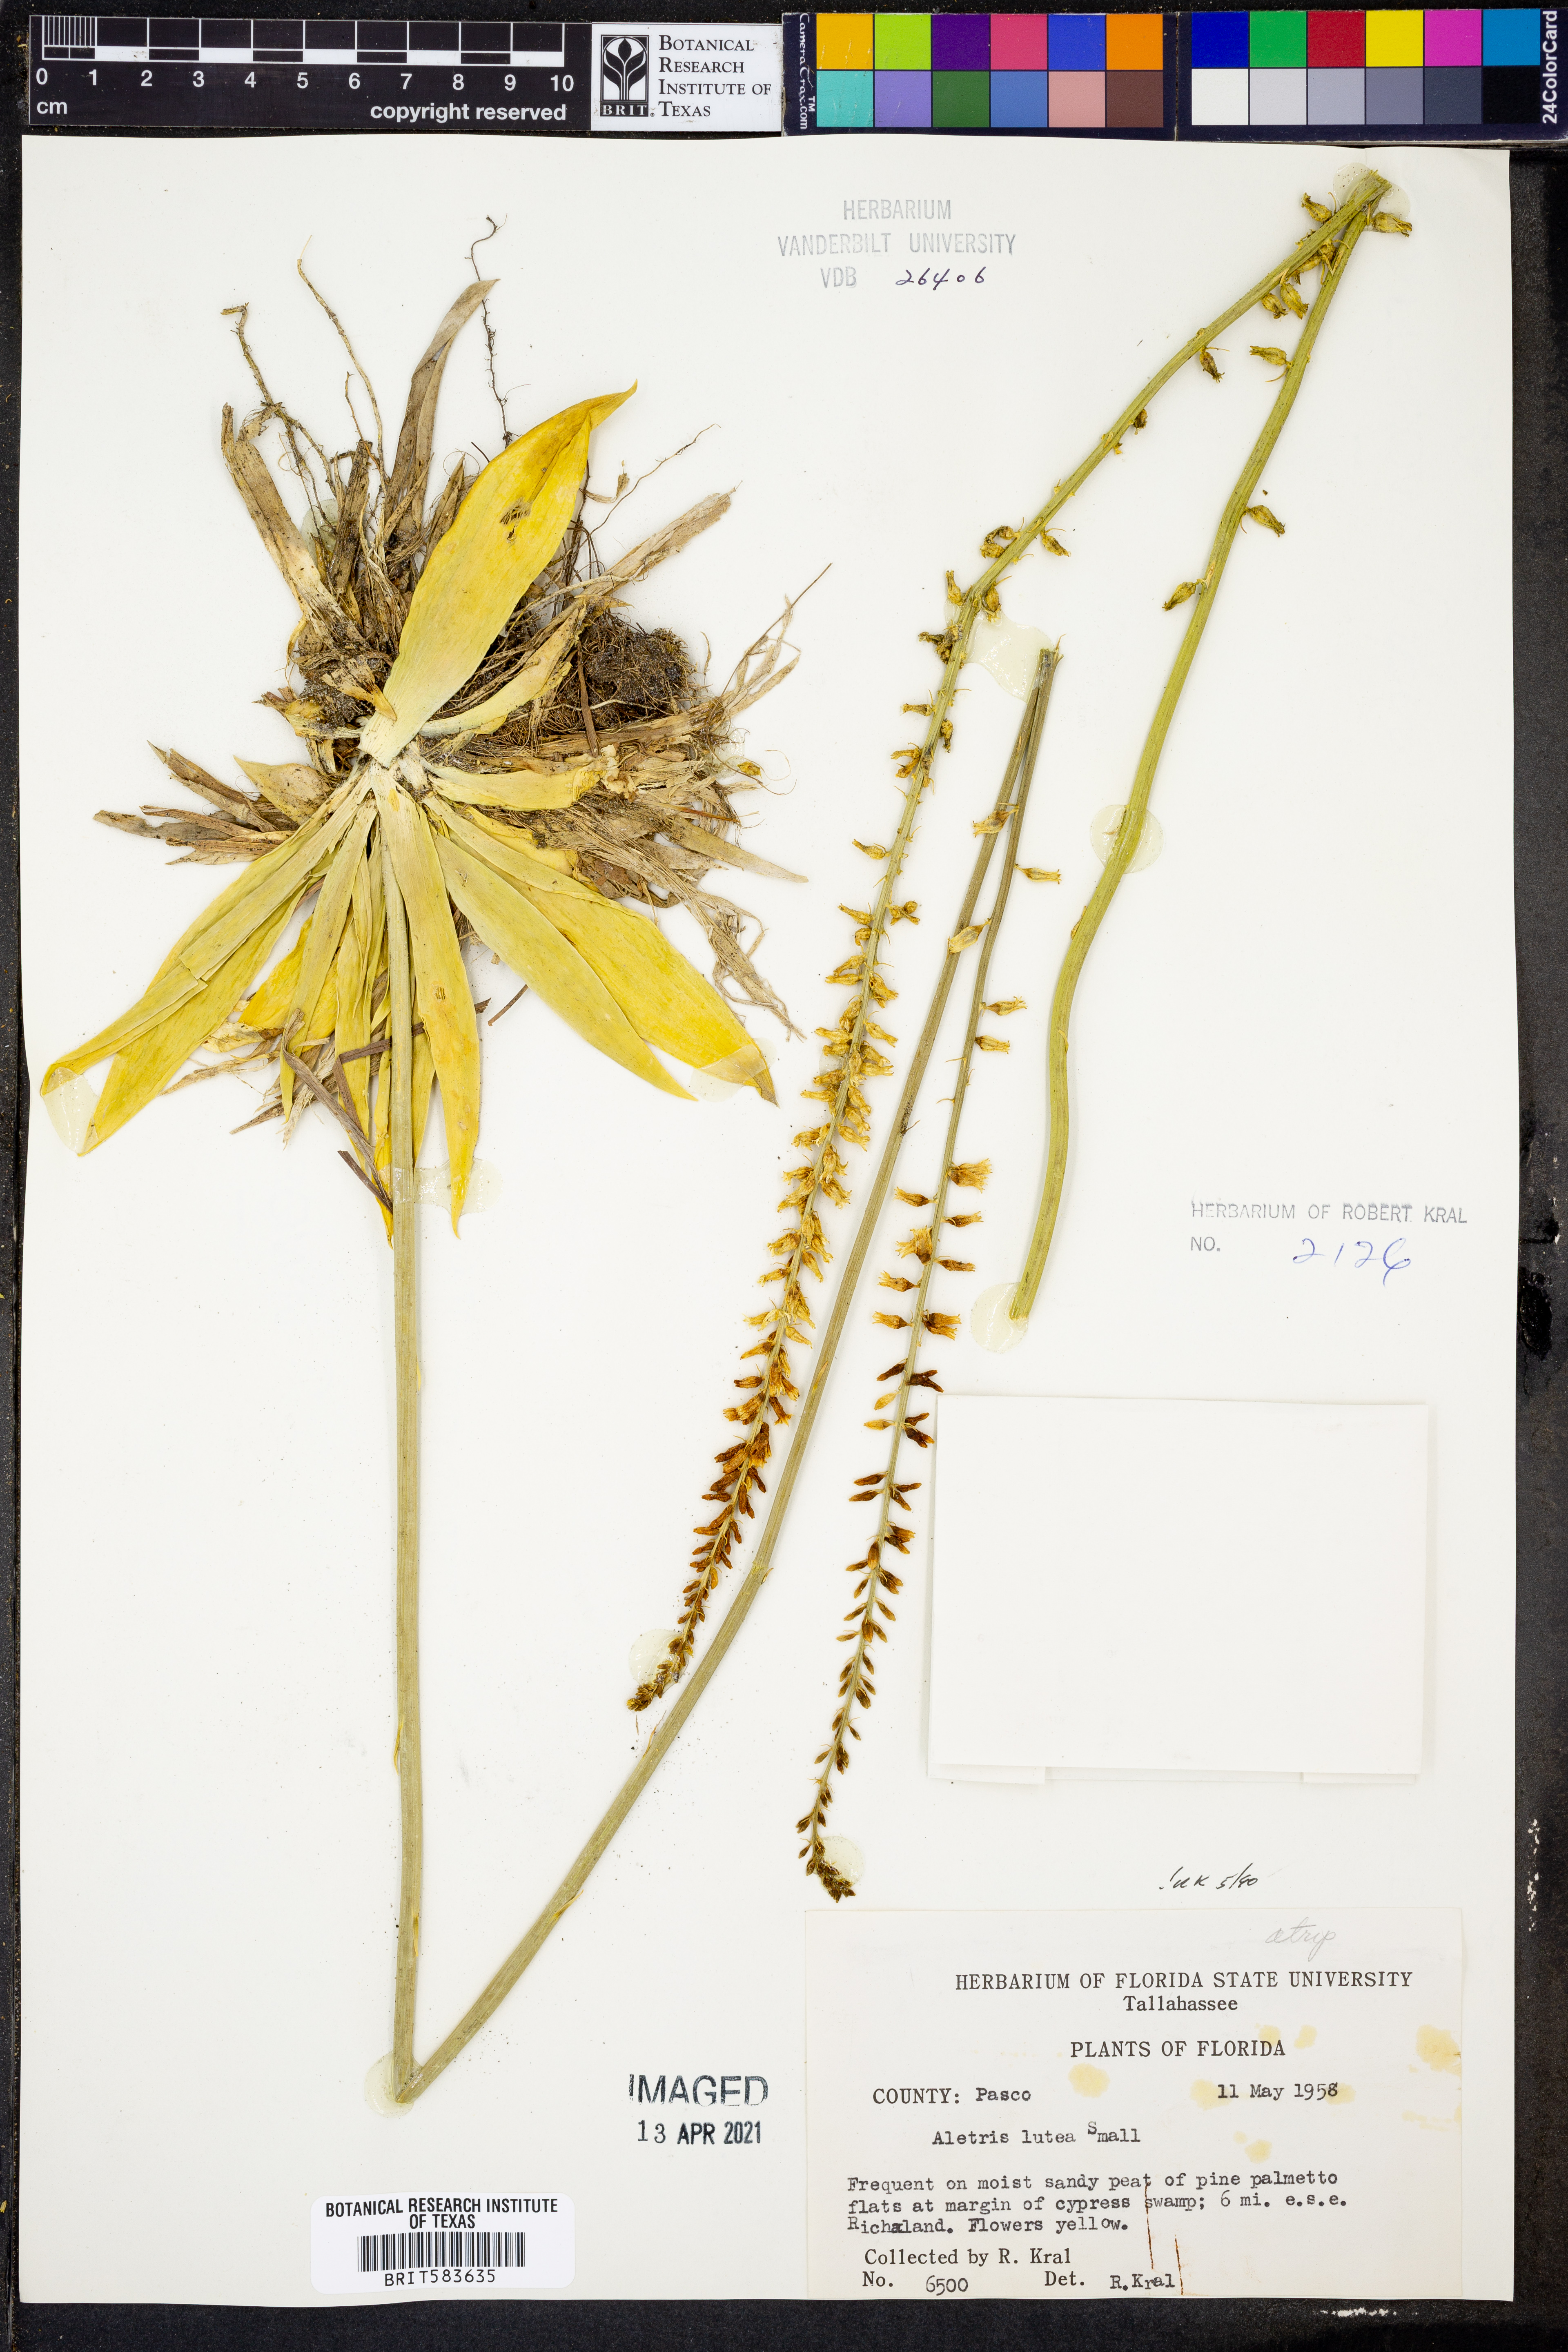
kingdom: Plantae
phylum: Tracheophyta
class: Liliopsida
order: Dioscoreales
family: Nartheciaceae
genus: Aletris
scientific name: Aletris lutea
